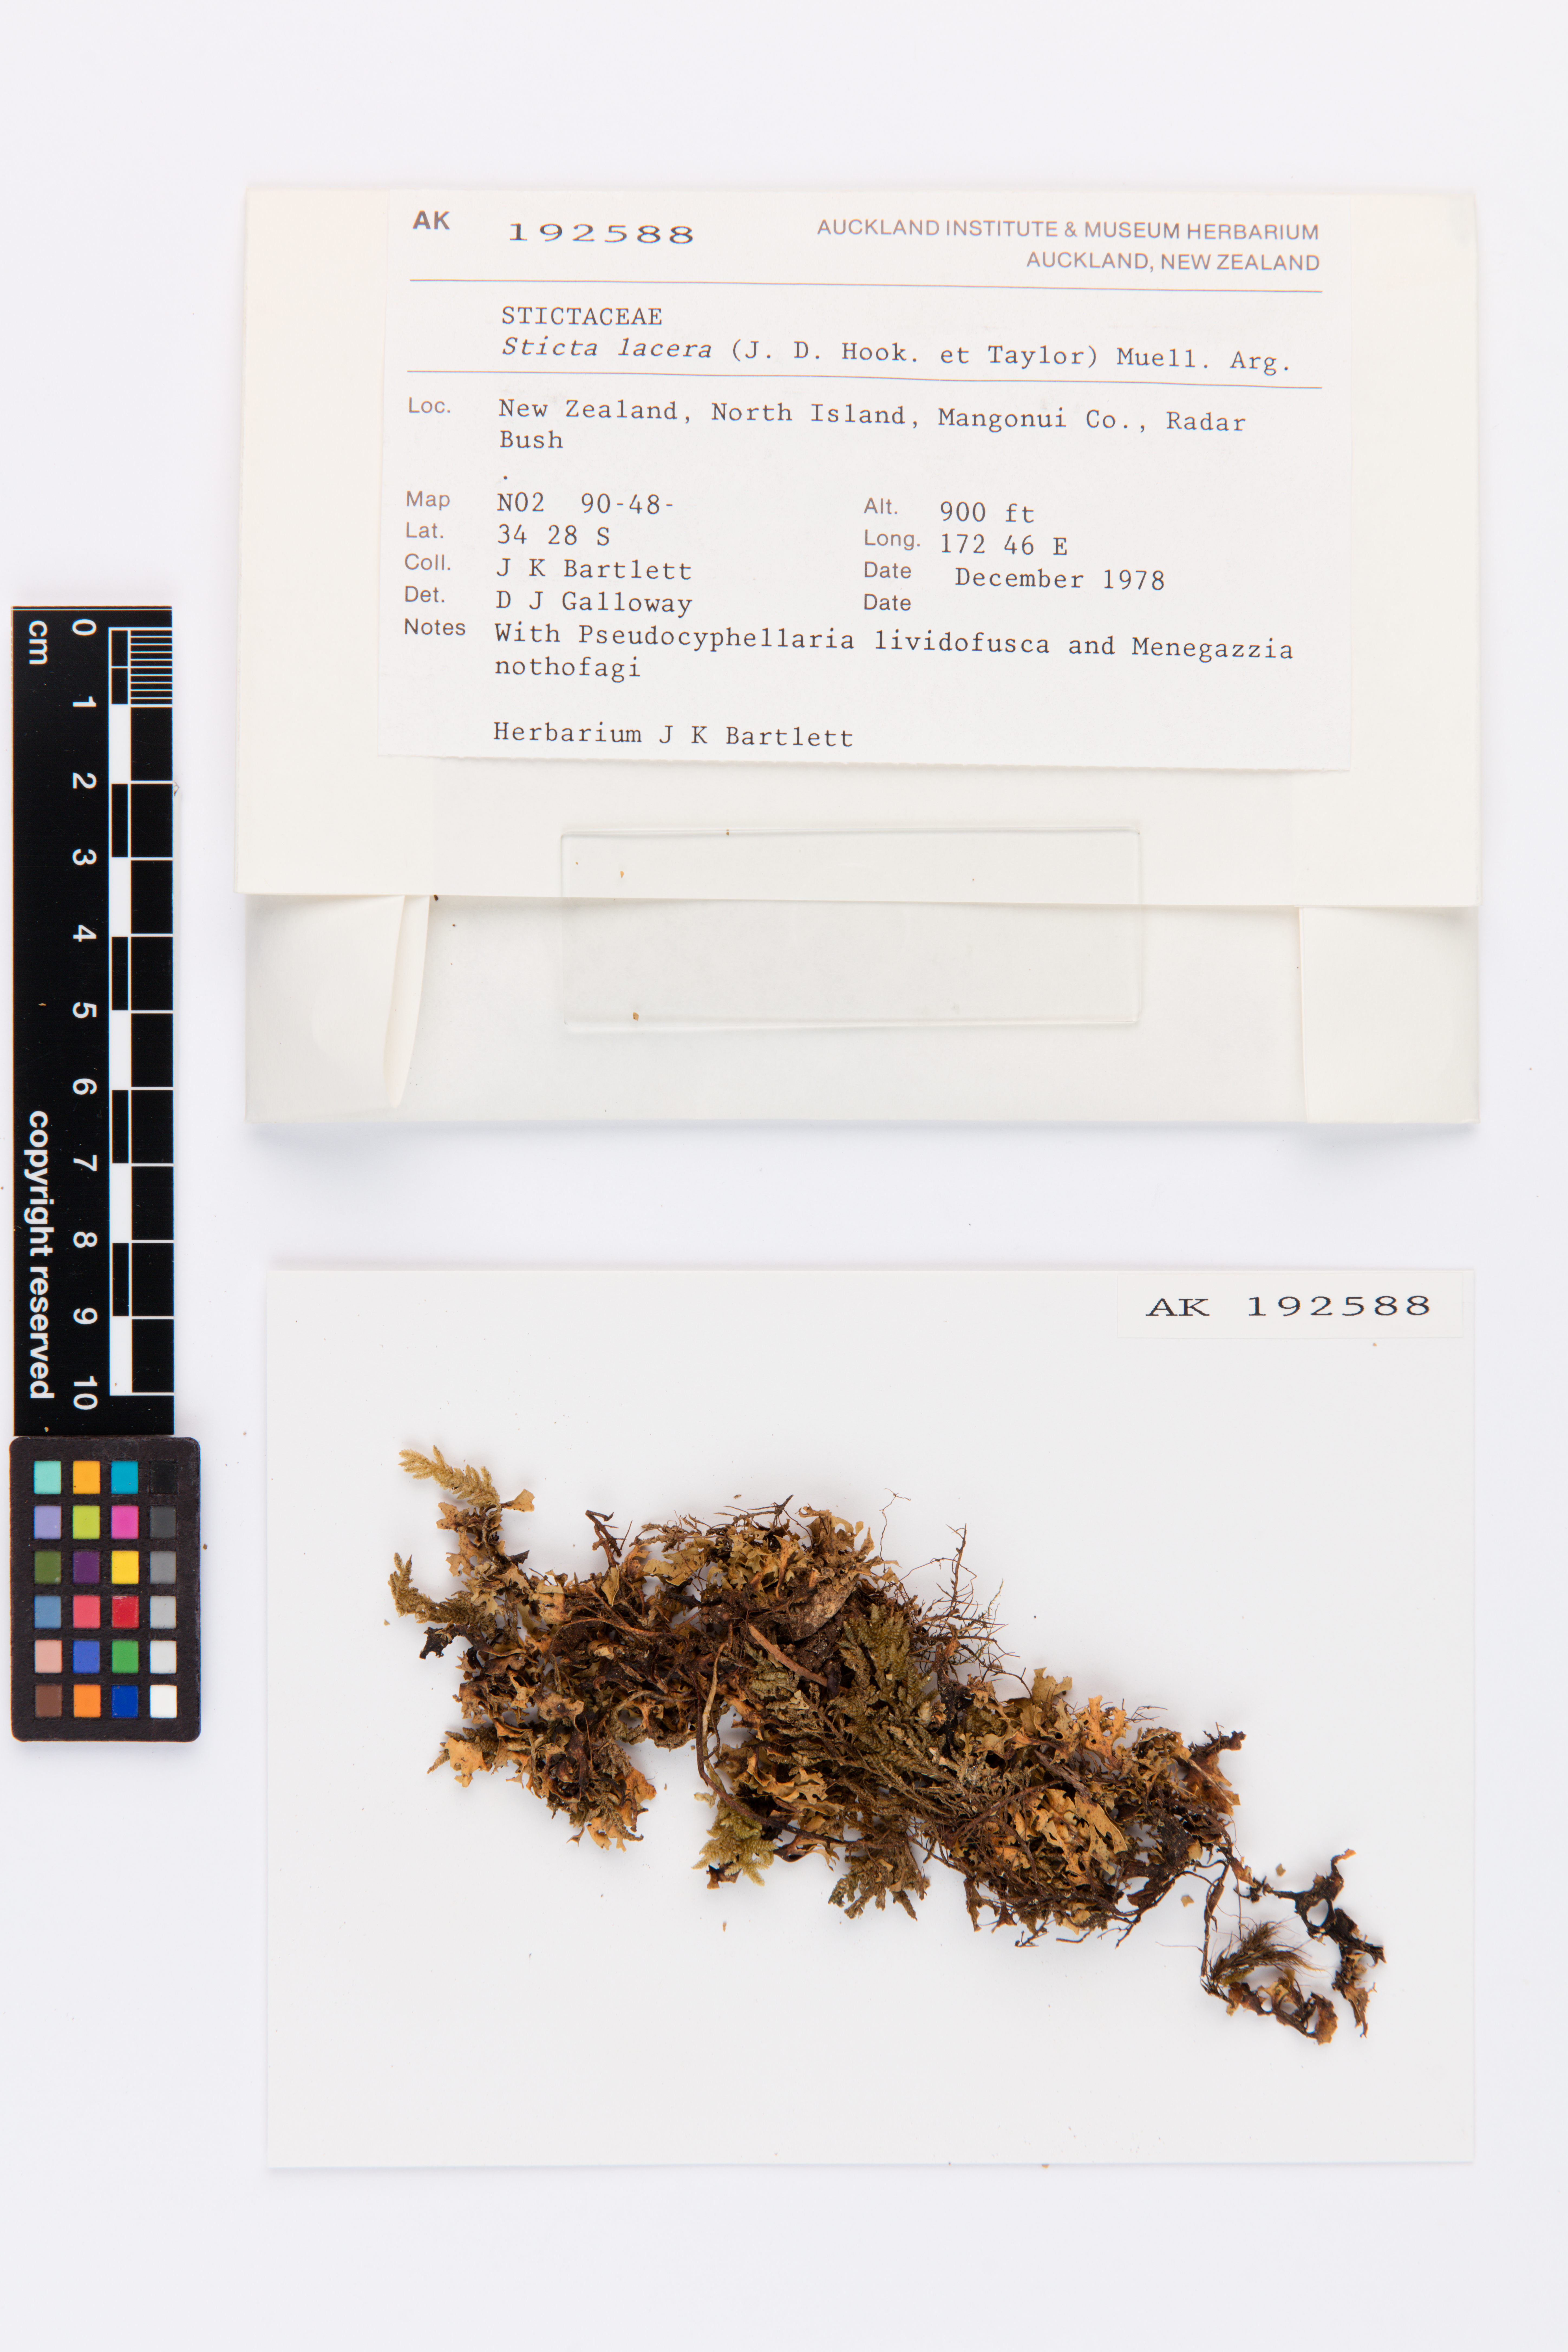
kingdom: Fungi
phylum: Ascomycota
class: Lecanoromycetes
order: Peltigerales
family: Lobariaceae
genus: Sticta
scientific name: Sticta
